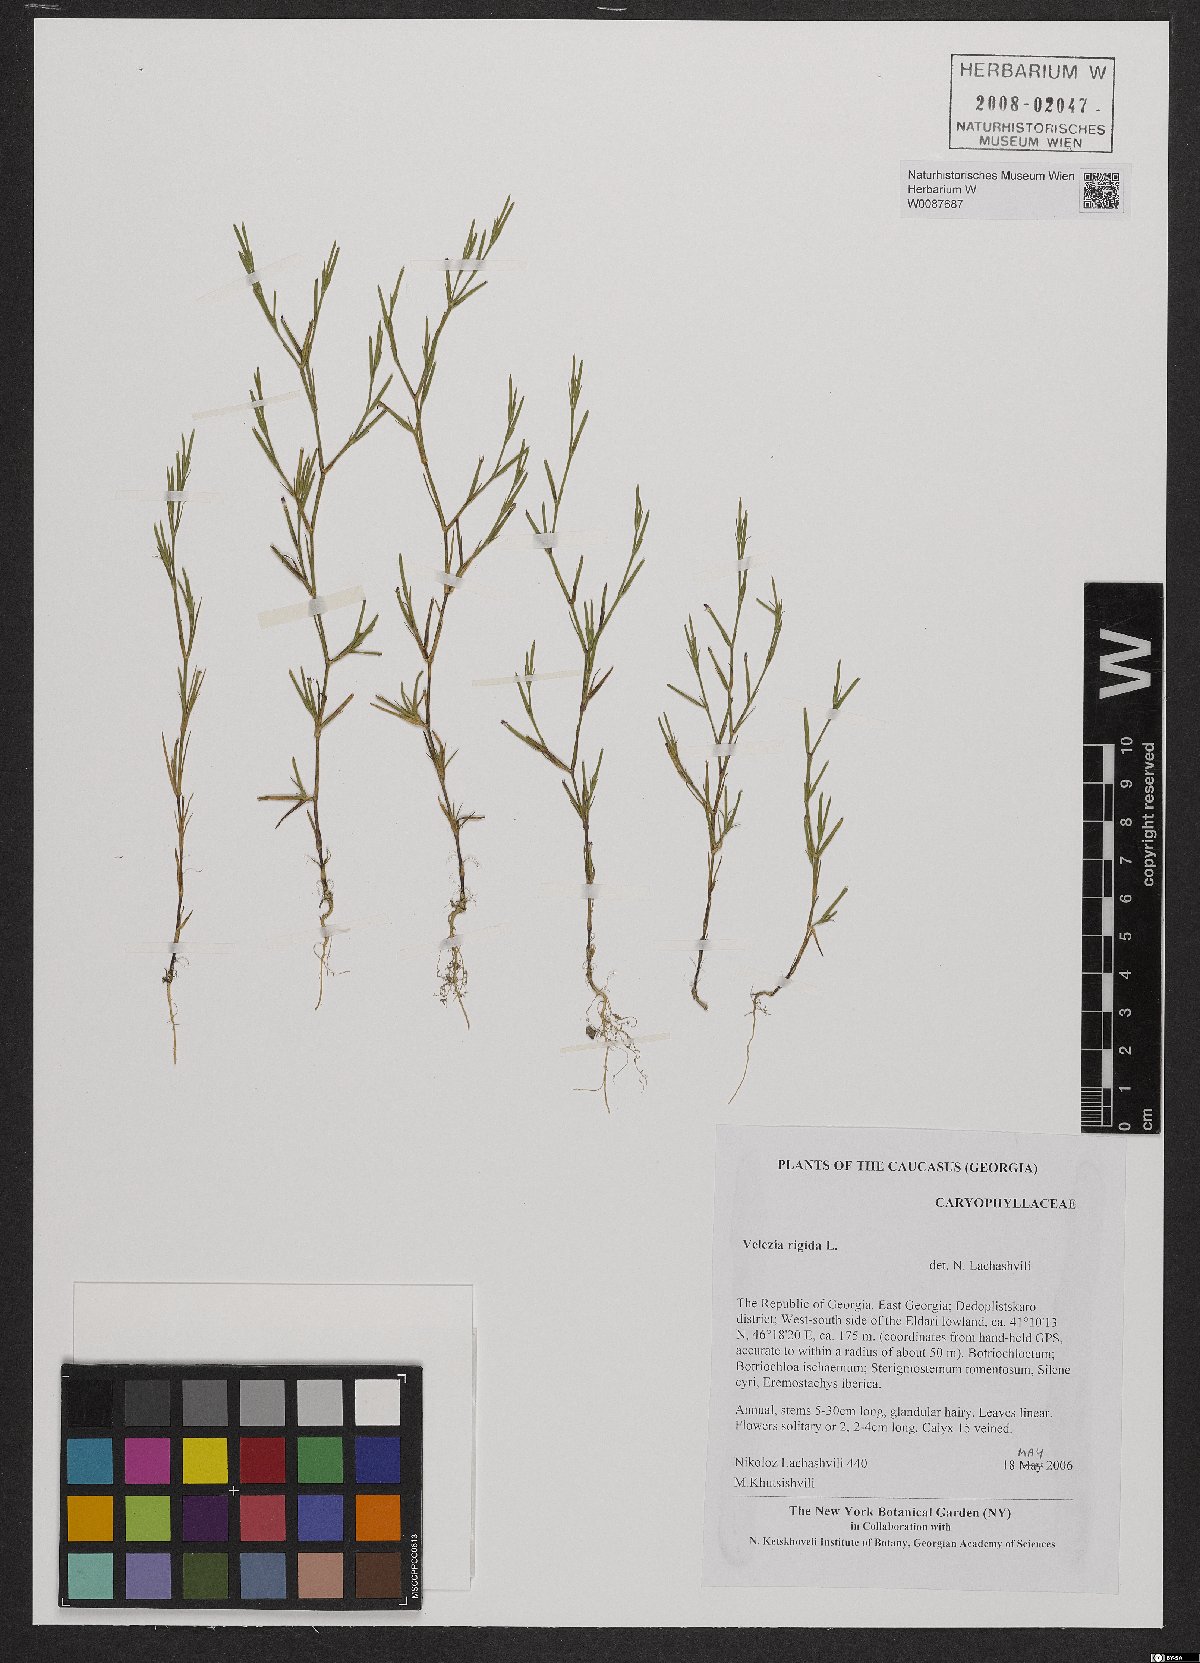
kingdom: Plantae
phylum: Tracheophyta
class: Magnoliopsida
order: Caryophyllales
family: Caryophyllaceae
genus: Dianthus
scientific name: Dianthus nudiflorus
